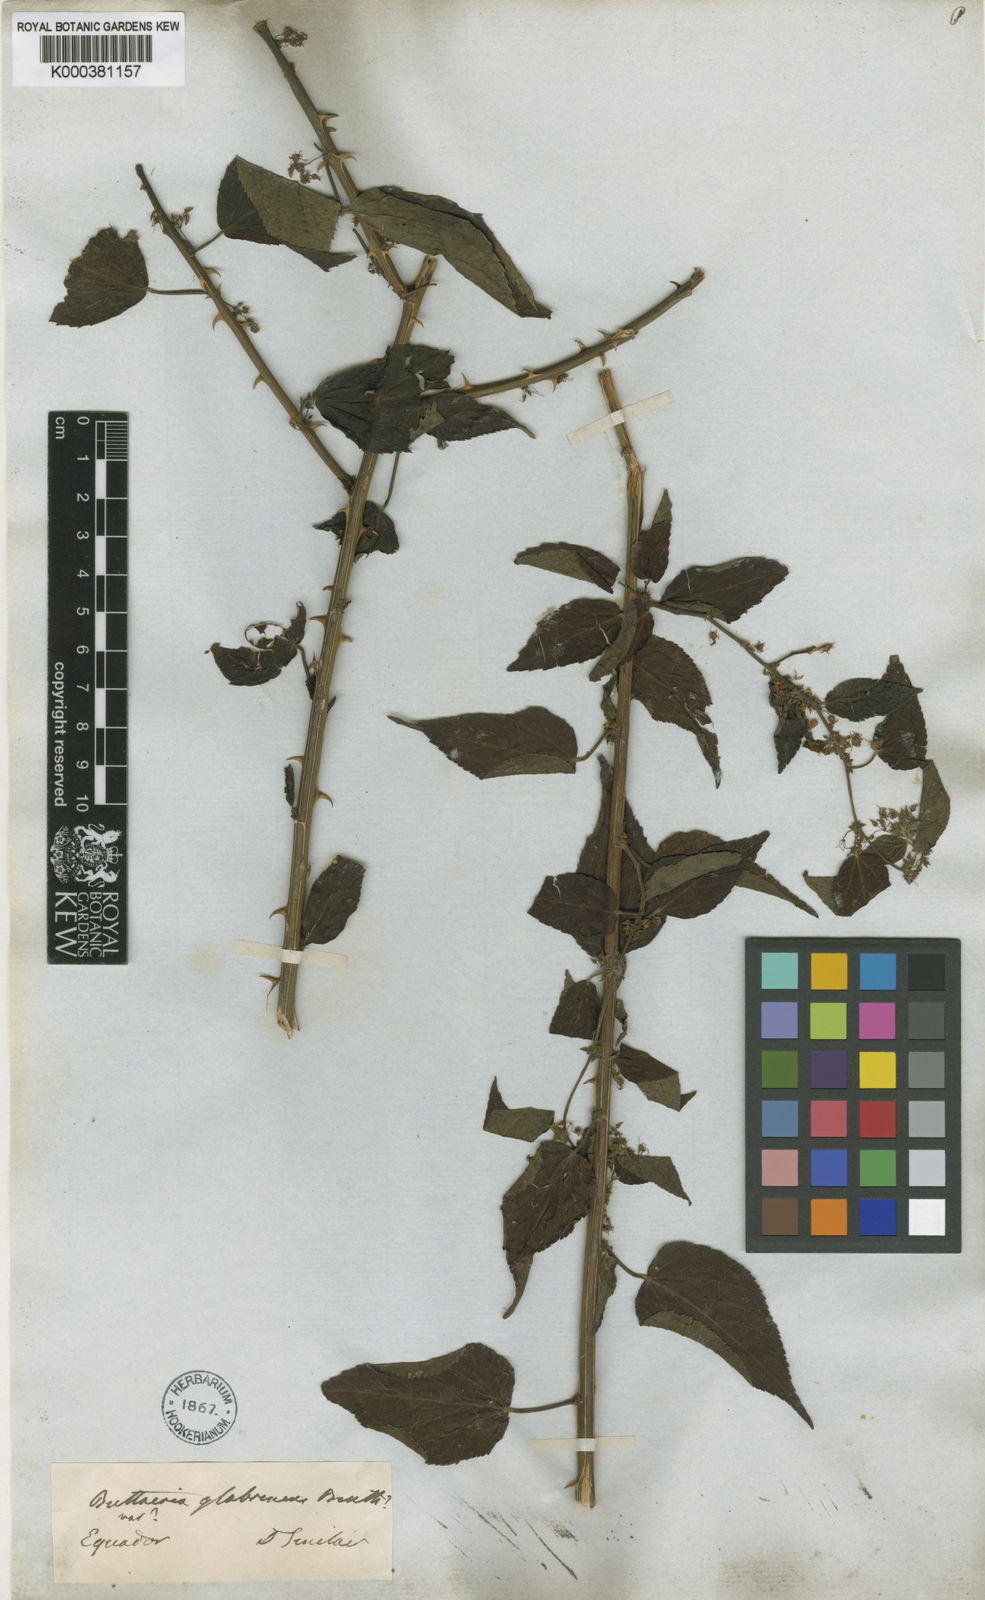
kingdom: Plantae
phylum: Tracheophyta
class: Magnoliopsida
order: Malvales
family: Malvaceae
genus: Byttneria
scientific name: Byttneria corchorifolia
